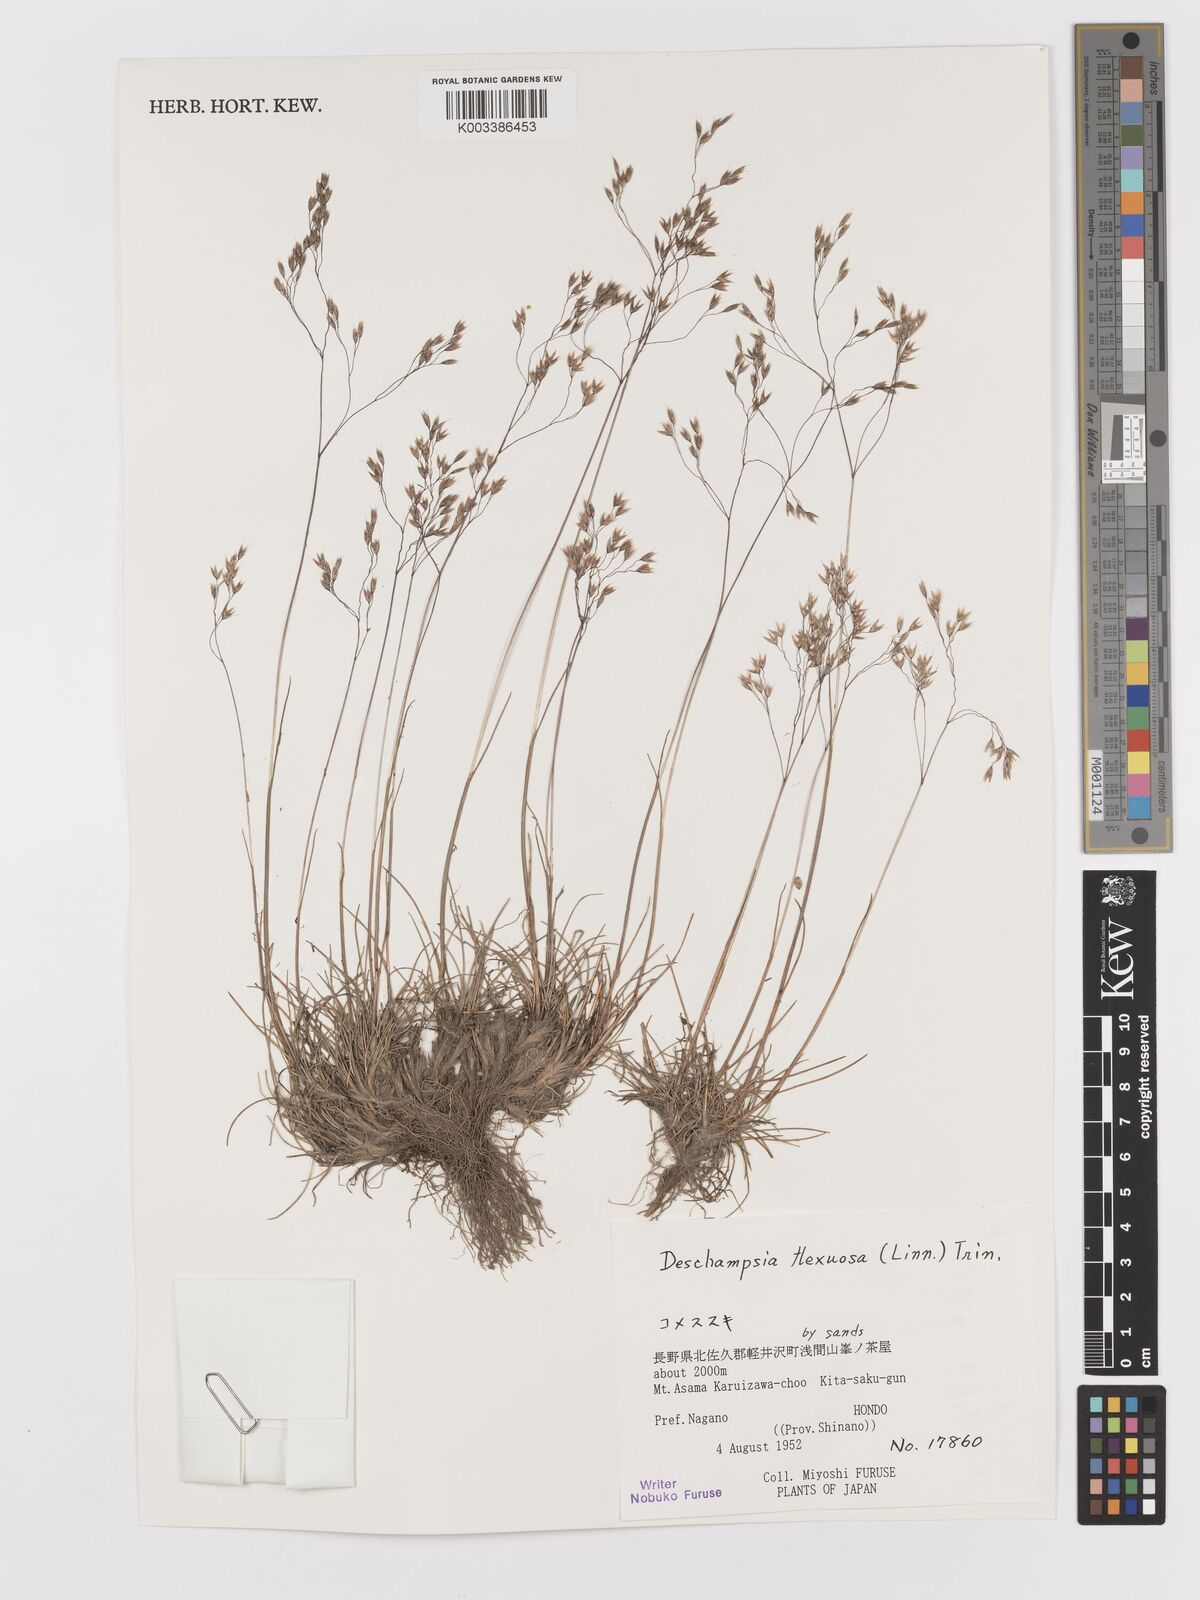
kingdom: Plantae
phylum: Tracheophyta
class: Liliopsida
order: Poales
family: Poaceae
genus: Avenella
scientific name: Avenella flexuosa
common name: Wavy hairgrass
